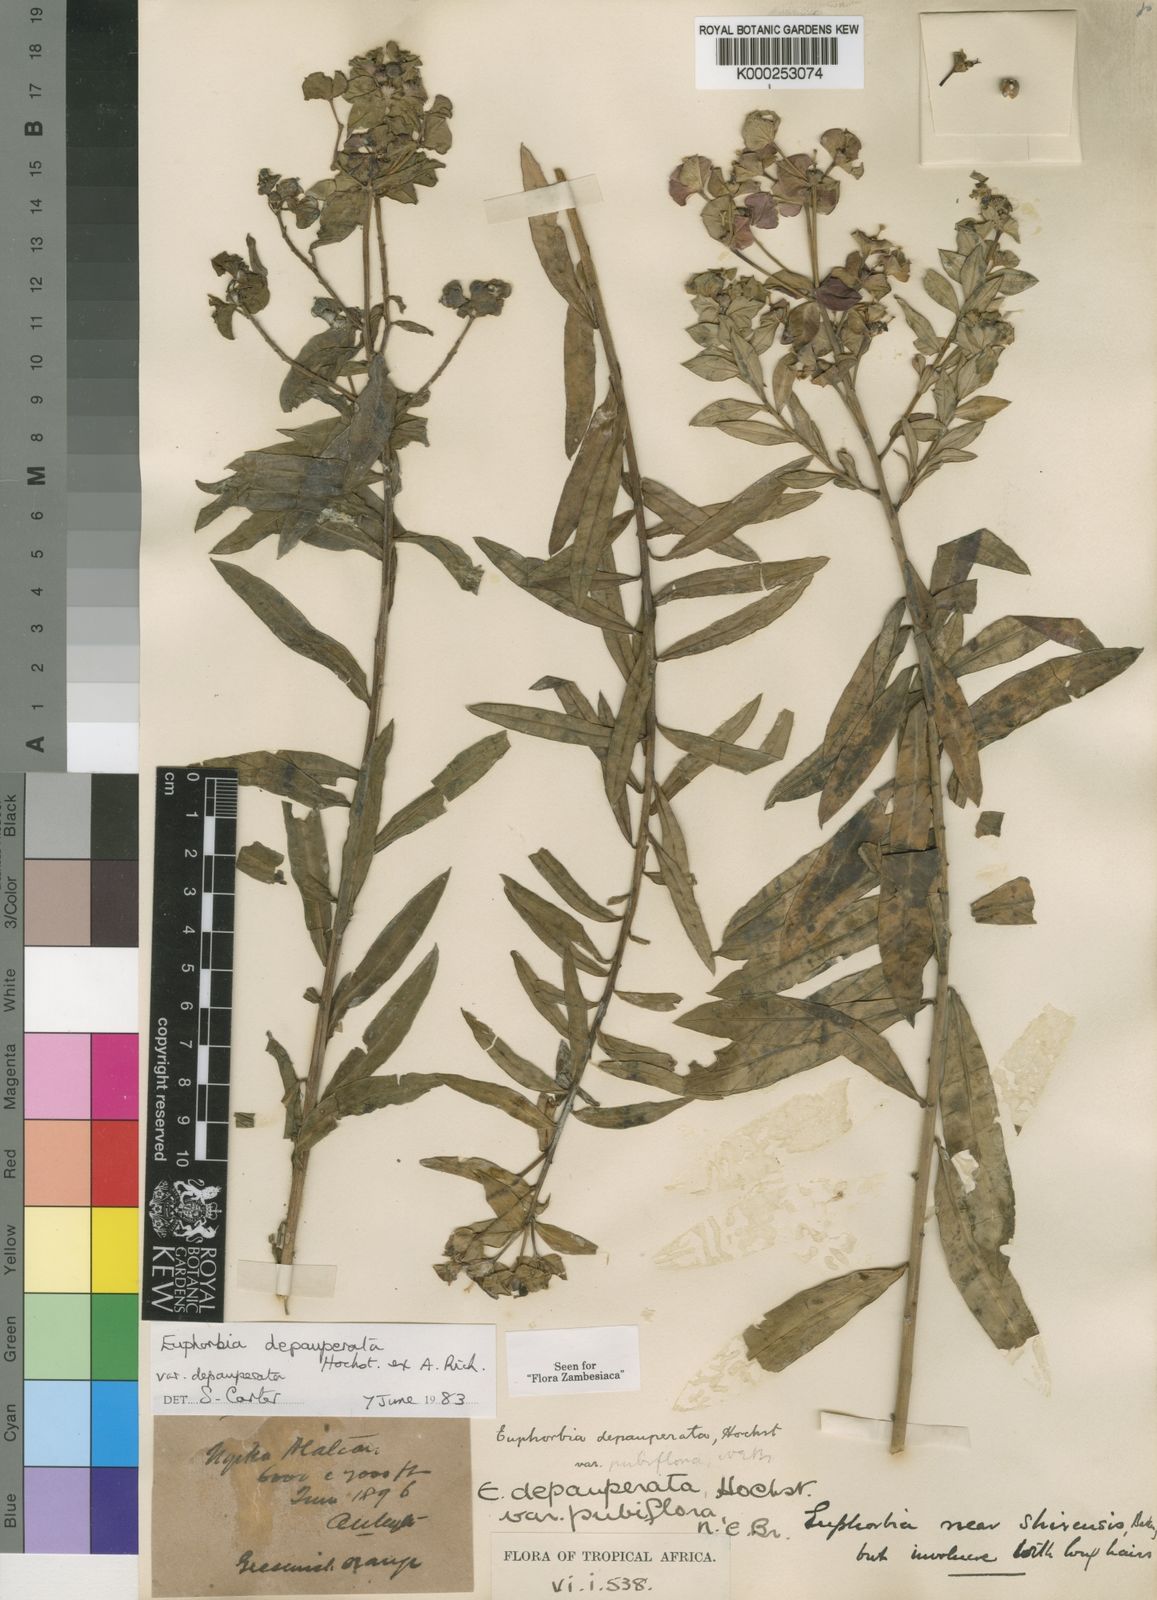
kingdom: Plantae
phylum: Tracheophyta
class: Magnoliopsida
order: Malpighiales
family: Euphorbiaceae
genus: Euphorbia
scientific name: Euphorbia depauperata
